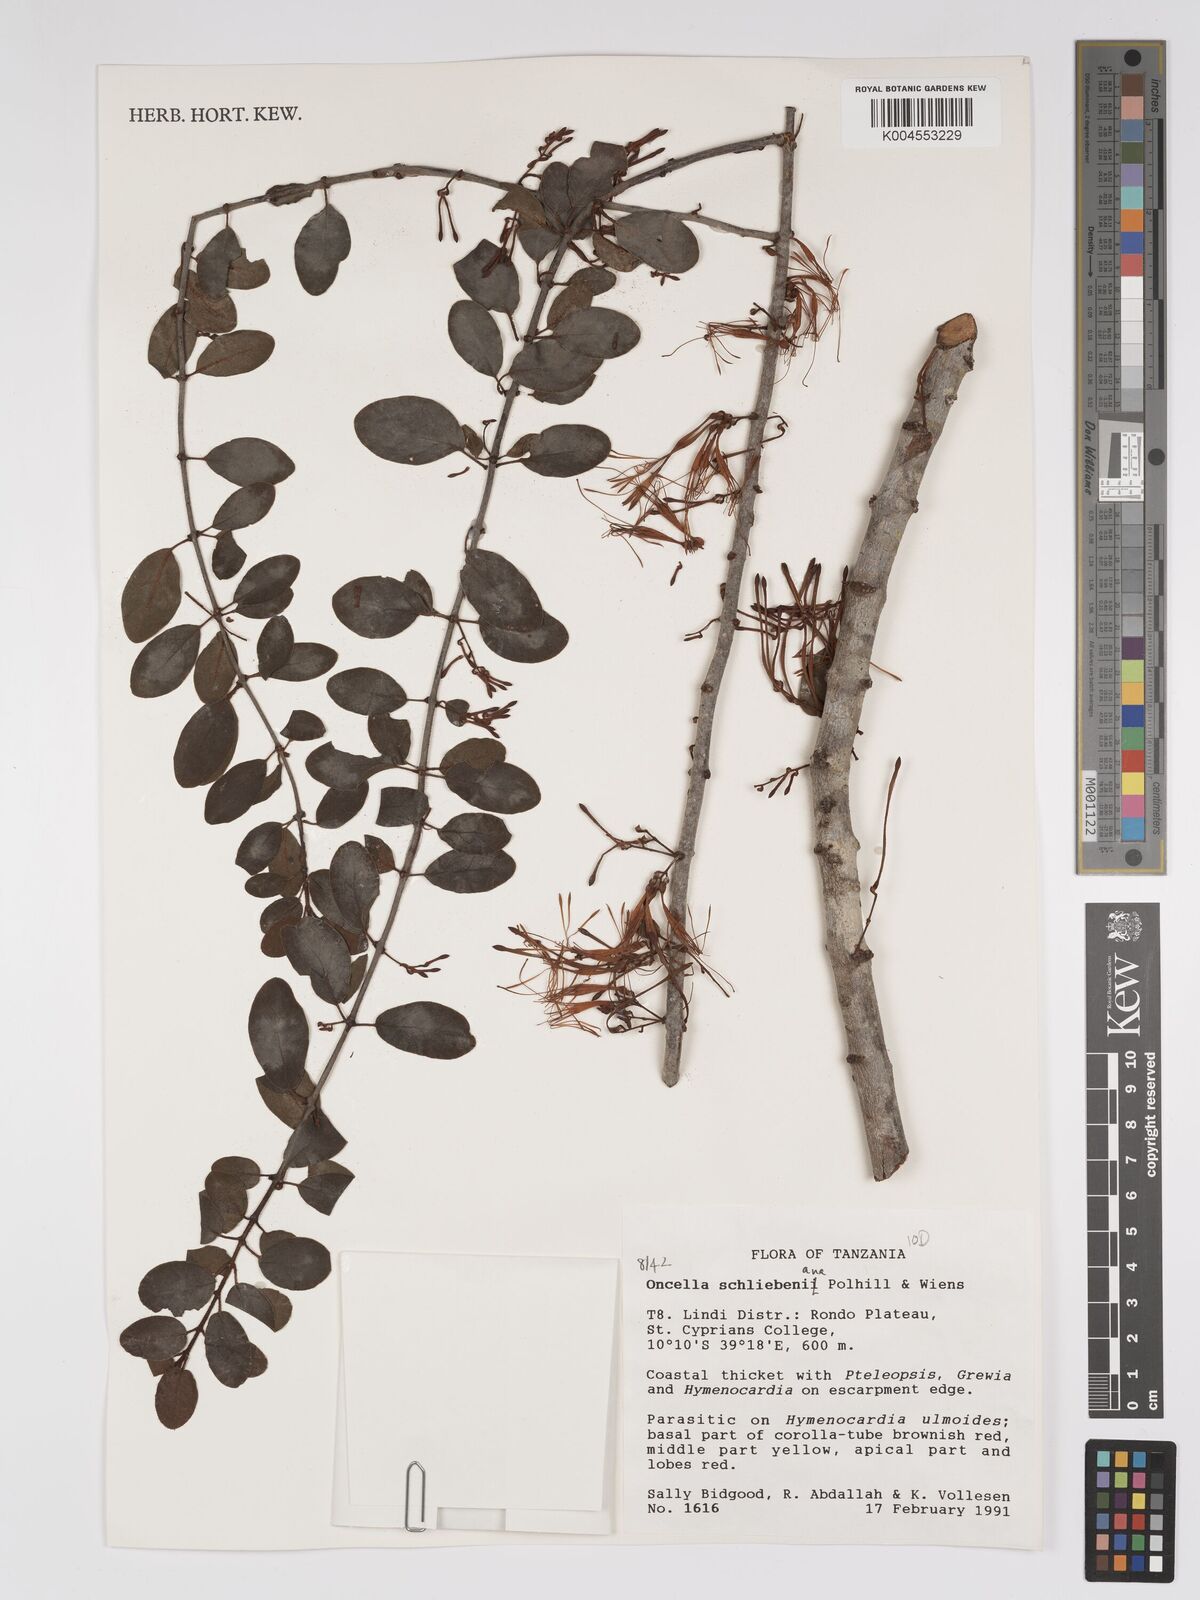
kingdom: Plantae
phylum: Tracheophyta
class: Magnoliopsida
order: Santalales
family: Loranthaceae
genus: Oncella
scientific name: Oncella schliebeniana
